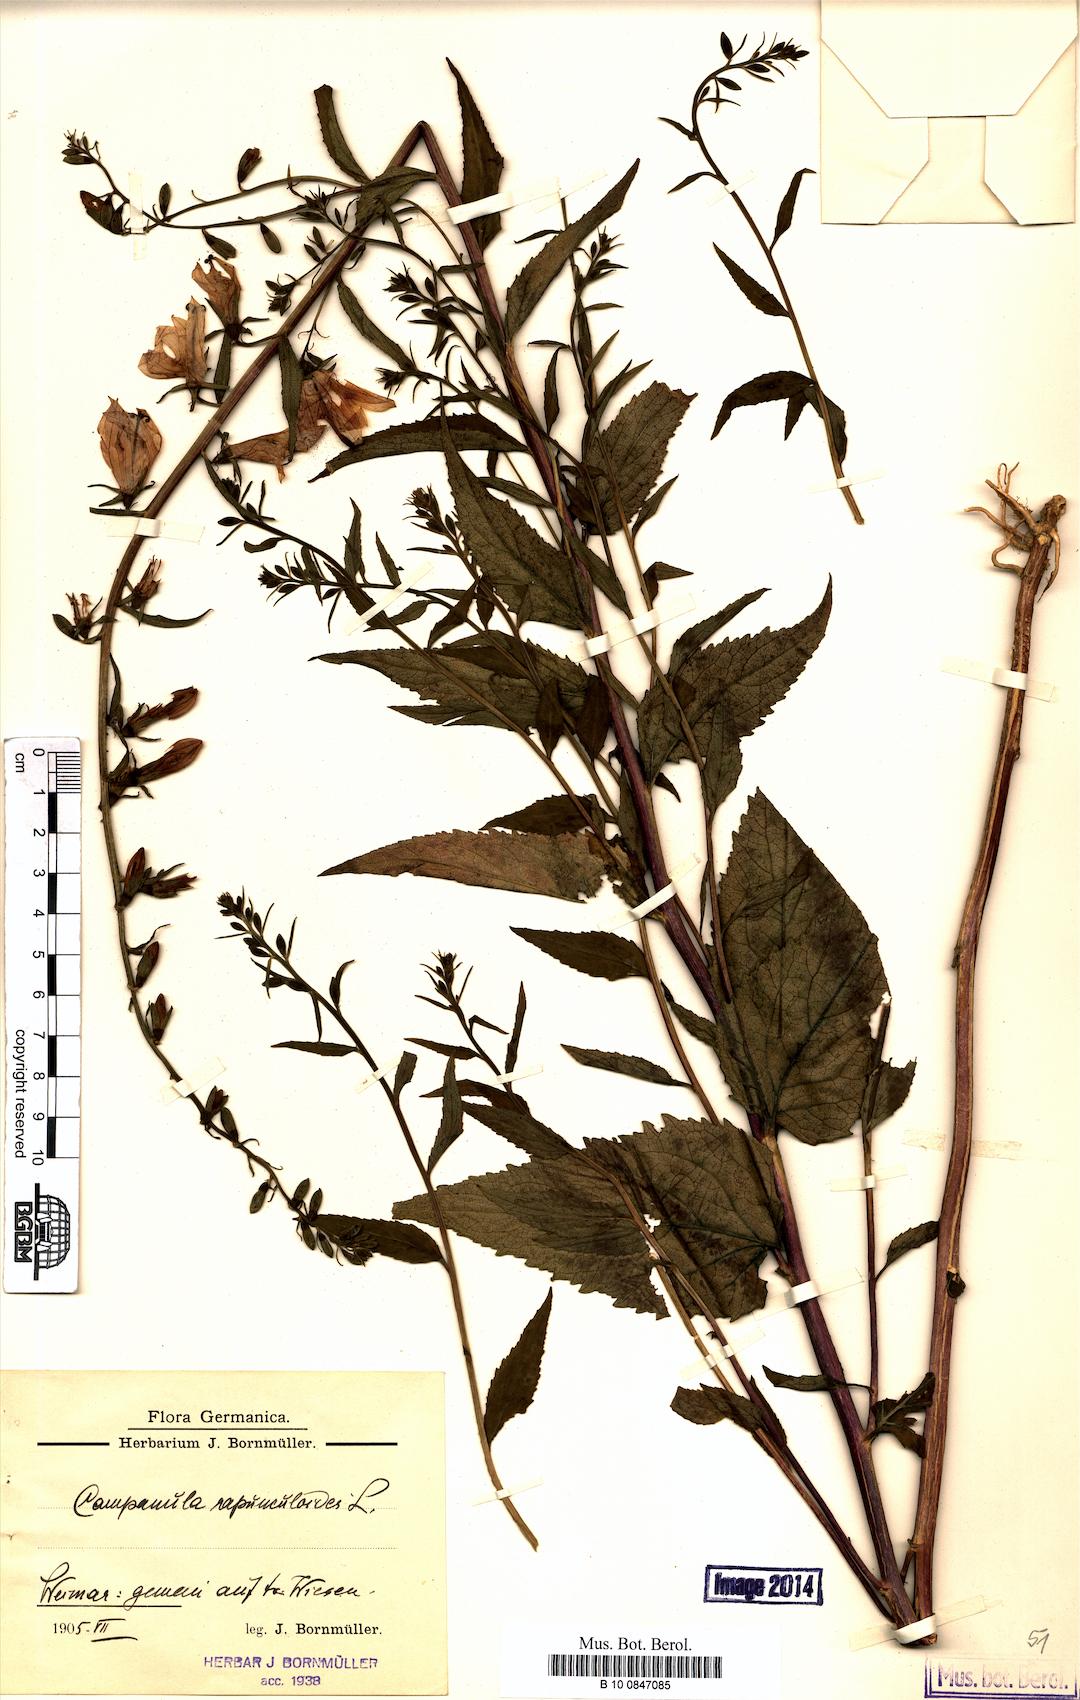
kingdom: Plantae
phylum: Tracheophyta
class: Magnoliopsida
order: Asterales
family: Campanulaceae
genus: Campanula
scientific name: Campanula rapunculoides
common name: Creeping bellflower
